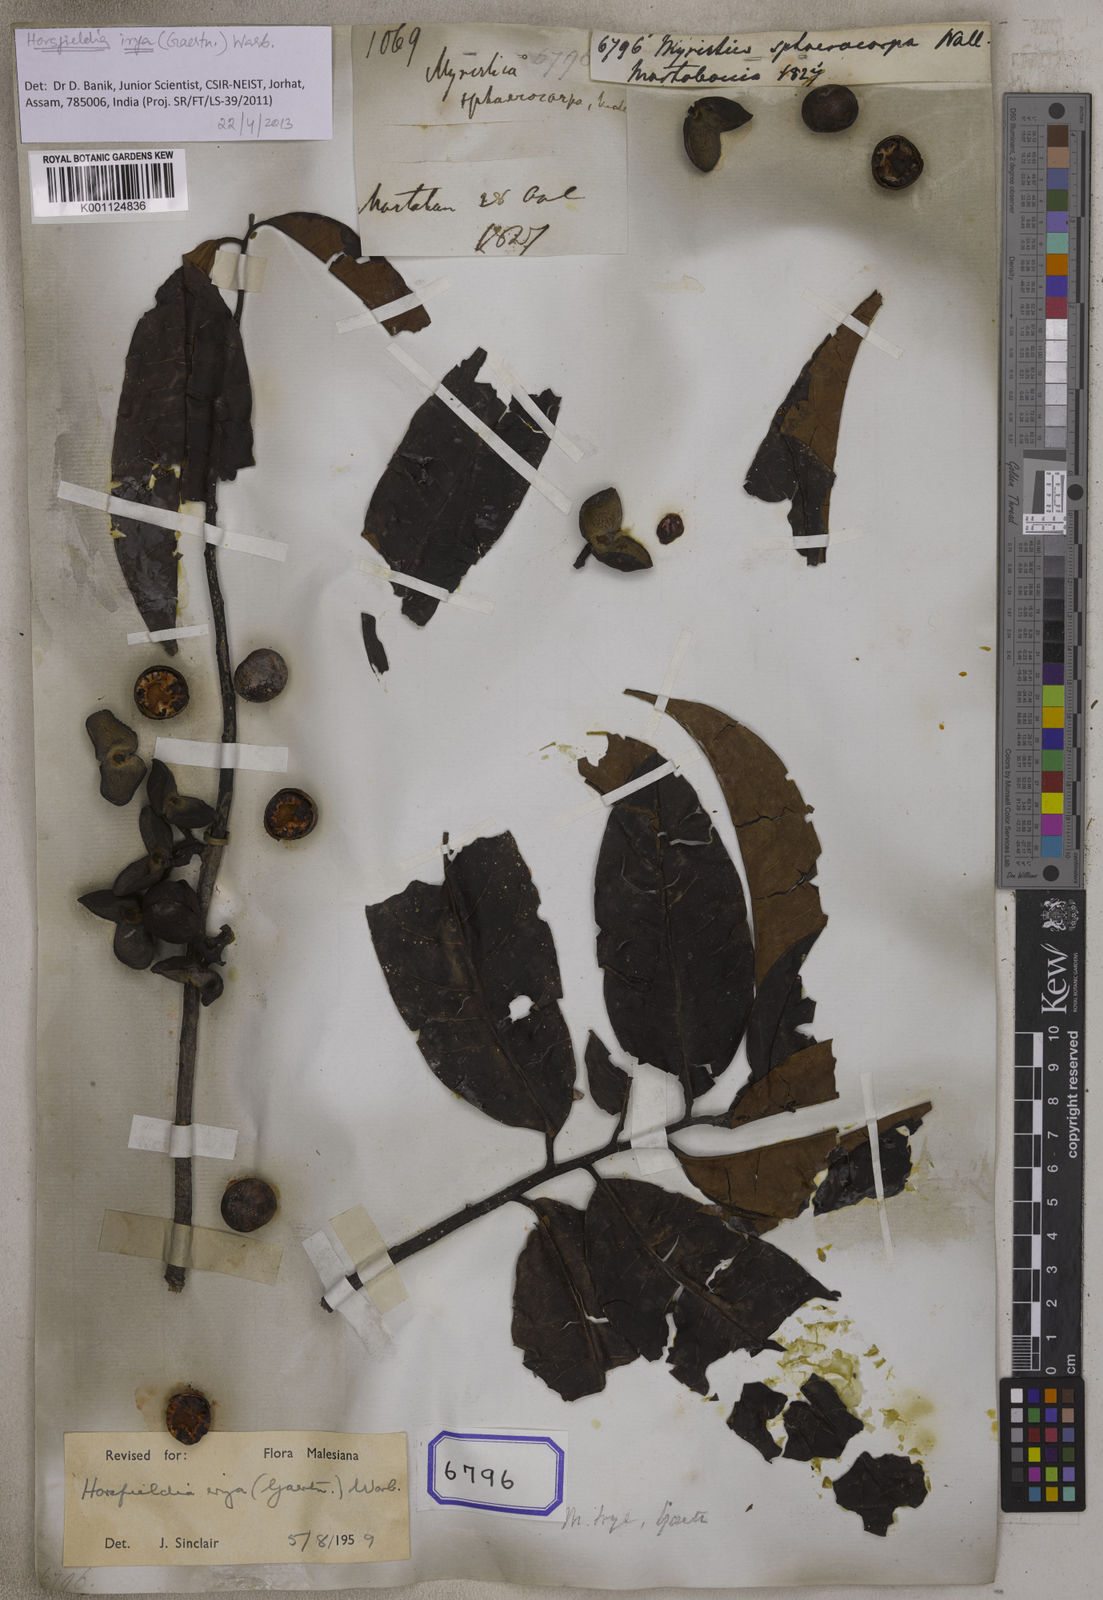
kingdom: Plantae
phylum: Tracheophyta
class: Magnoliopsida
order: Magnoliales
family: Myristicaceae
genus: Horsfieldia
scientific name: Horsfieldia irya
